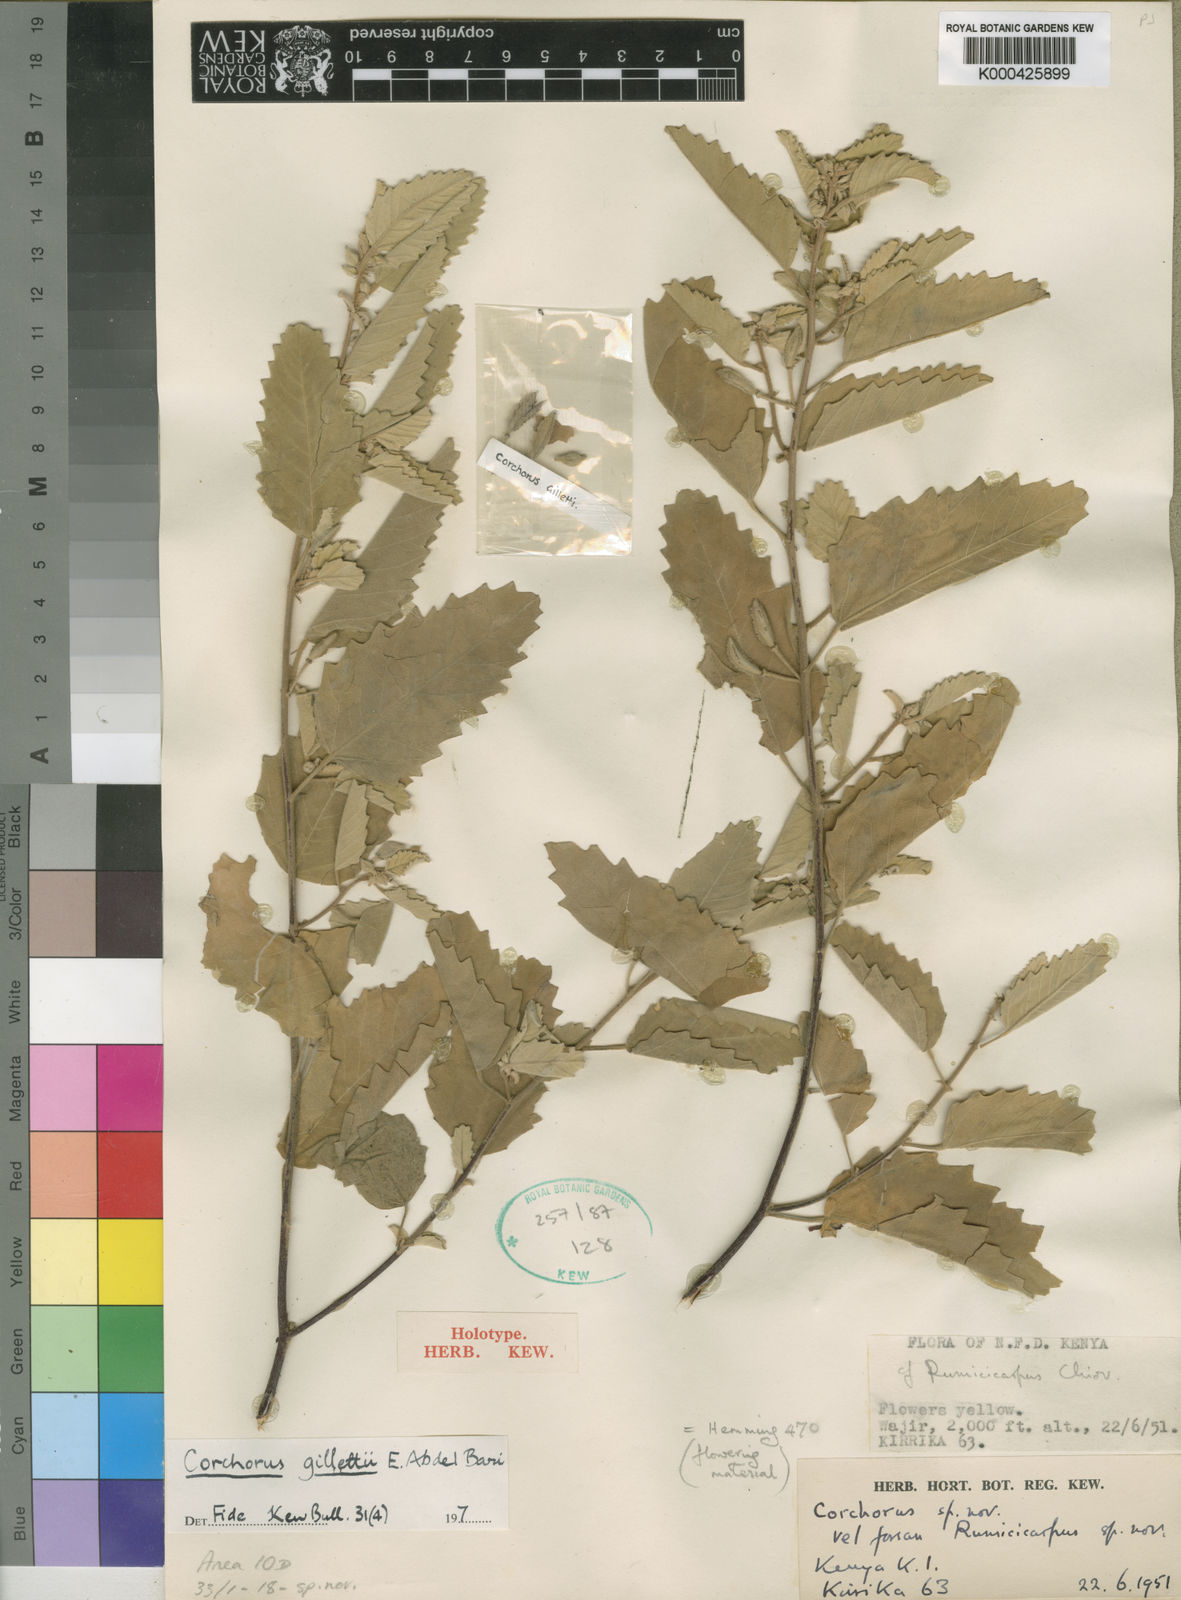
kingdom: Plantae
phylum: Tracheophyta
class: Magnoliopsida
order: Malvales
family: Malvaceae
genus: Corchorus
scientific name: Corchorus gillettii
